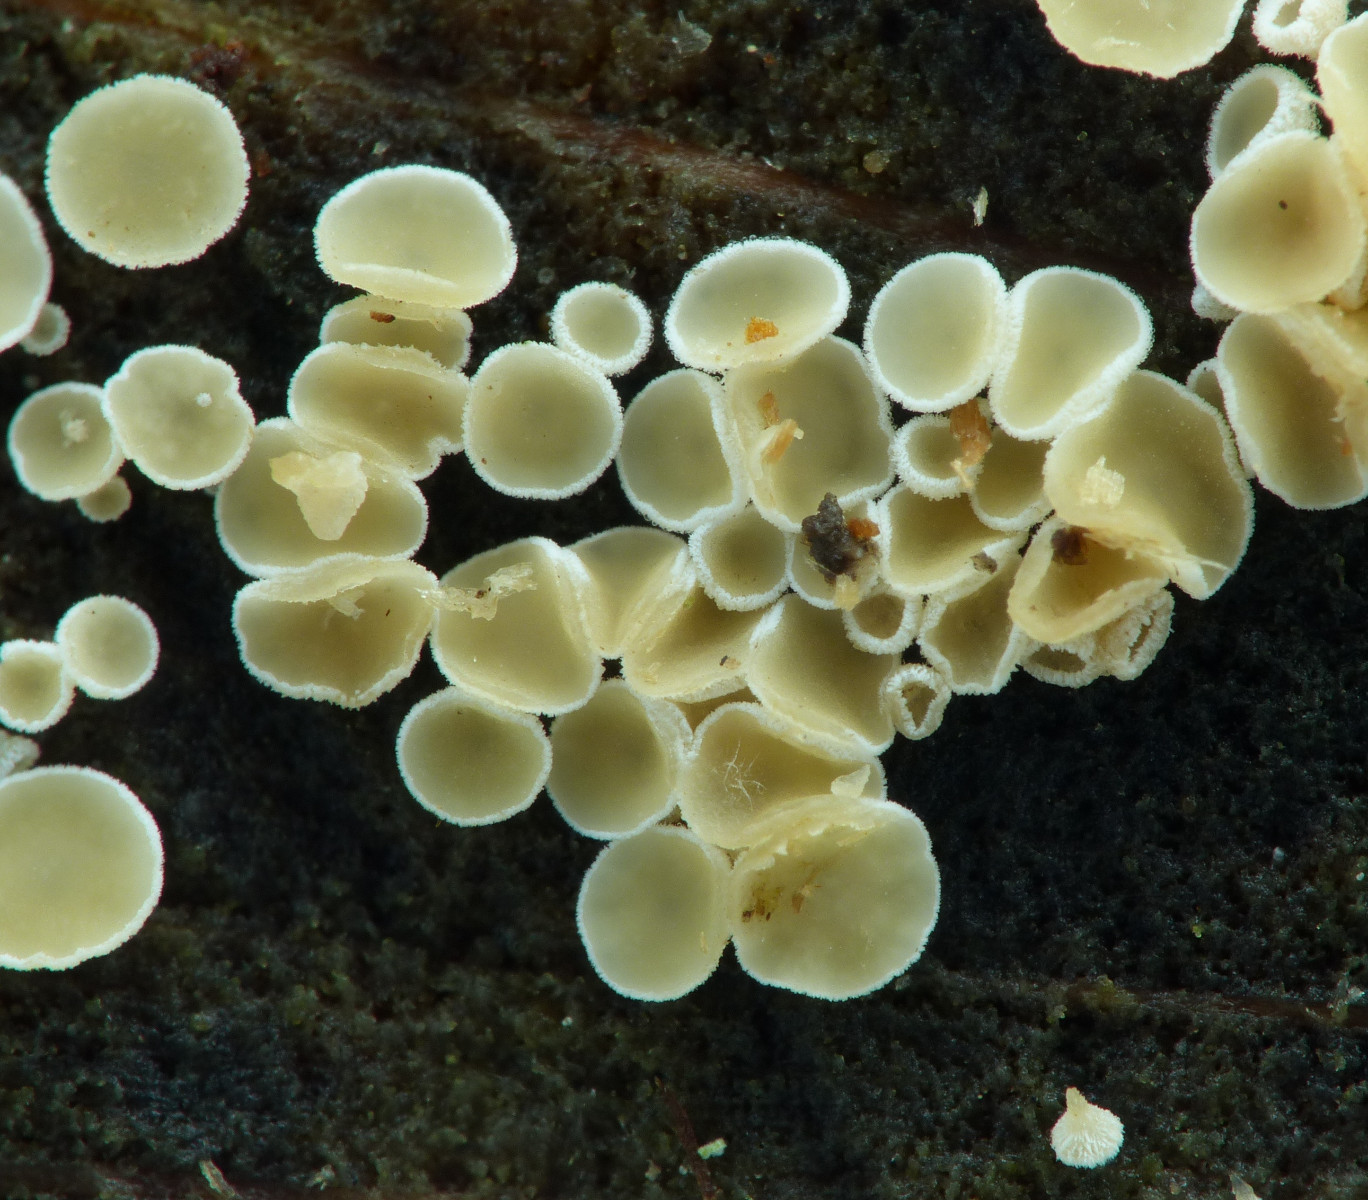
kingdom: Fungi
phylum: Ascomycota
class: Leotiomycetes
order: Helotiales
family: Lachnaceae
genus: Lachnum
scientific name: Lachnum
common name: frynseskive
